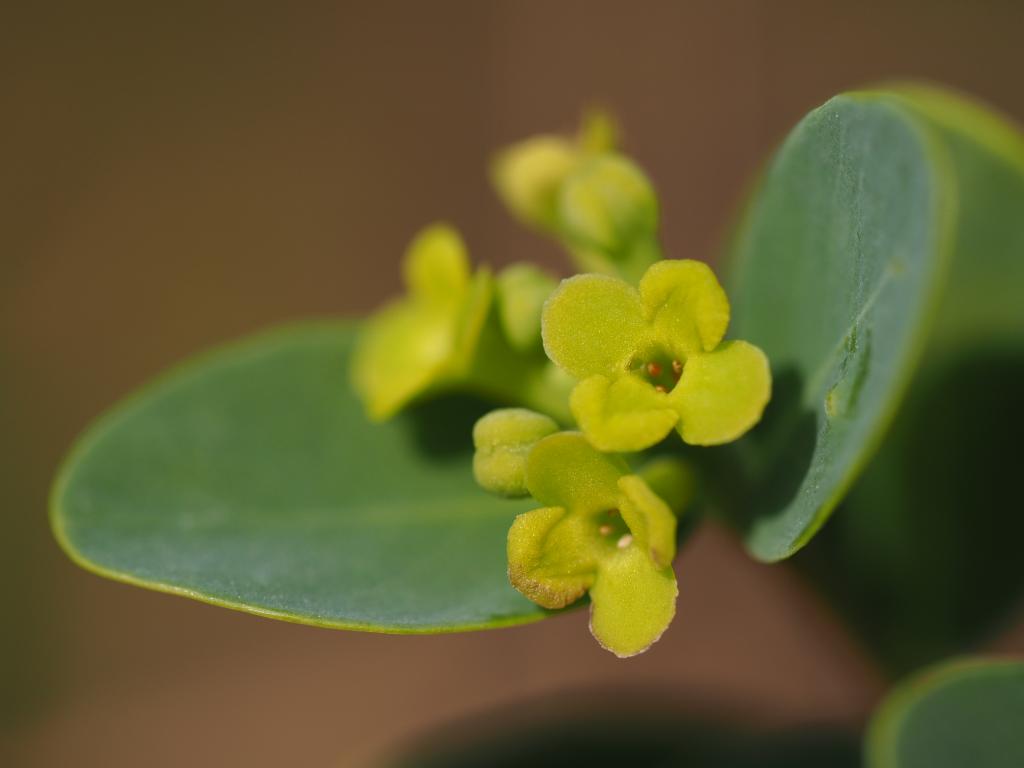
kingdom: Plantae
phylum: Tracheophyta
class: Magnoliopsida
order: Malvales
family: Thymelaeaceae
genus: Wikstroemia
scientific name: Wikstroemia indica
